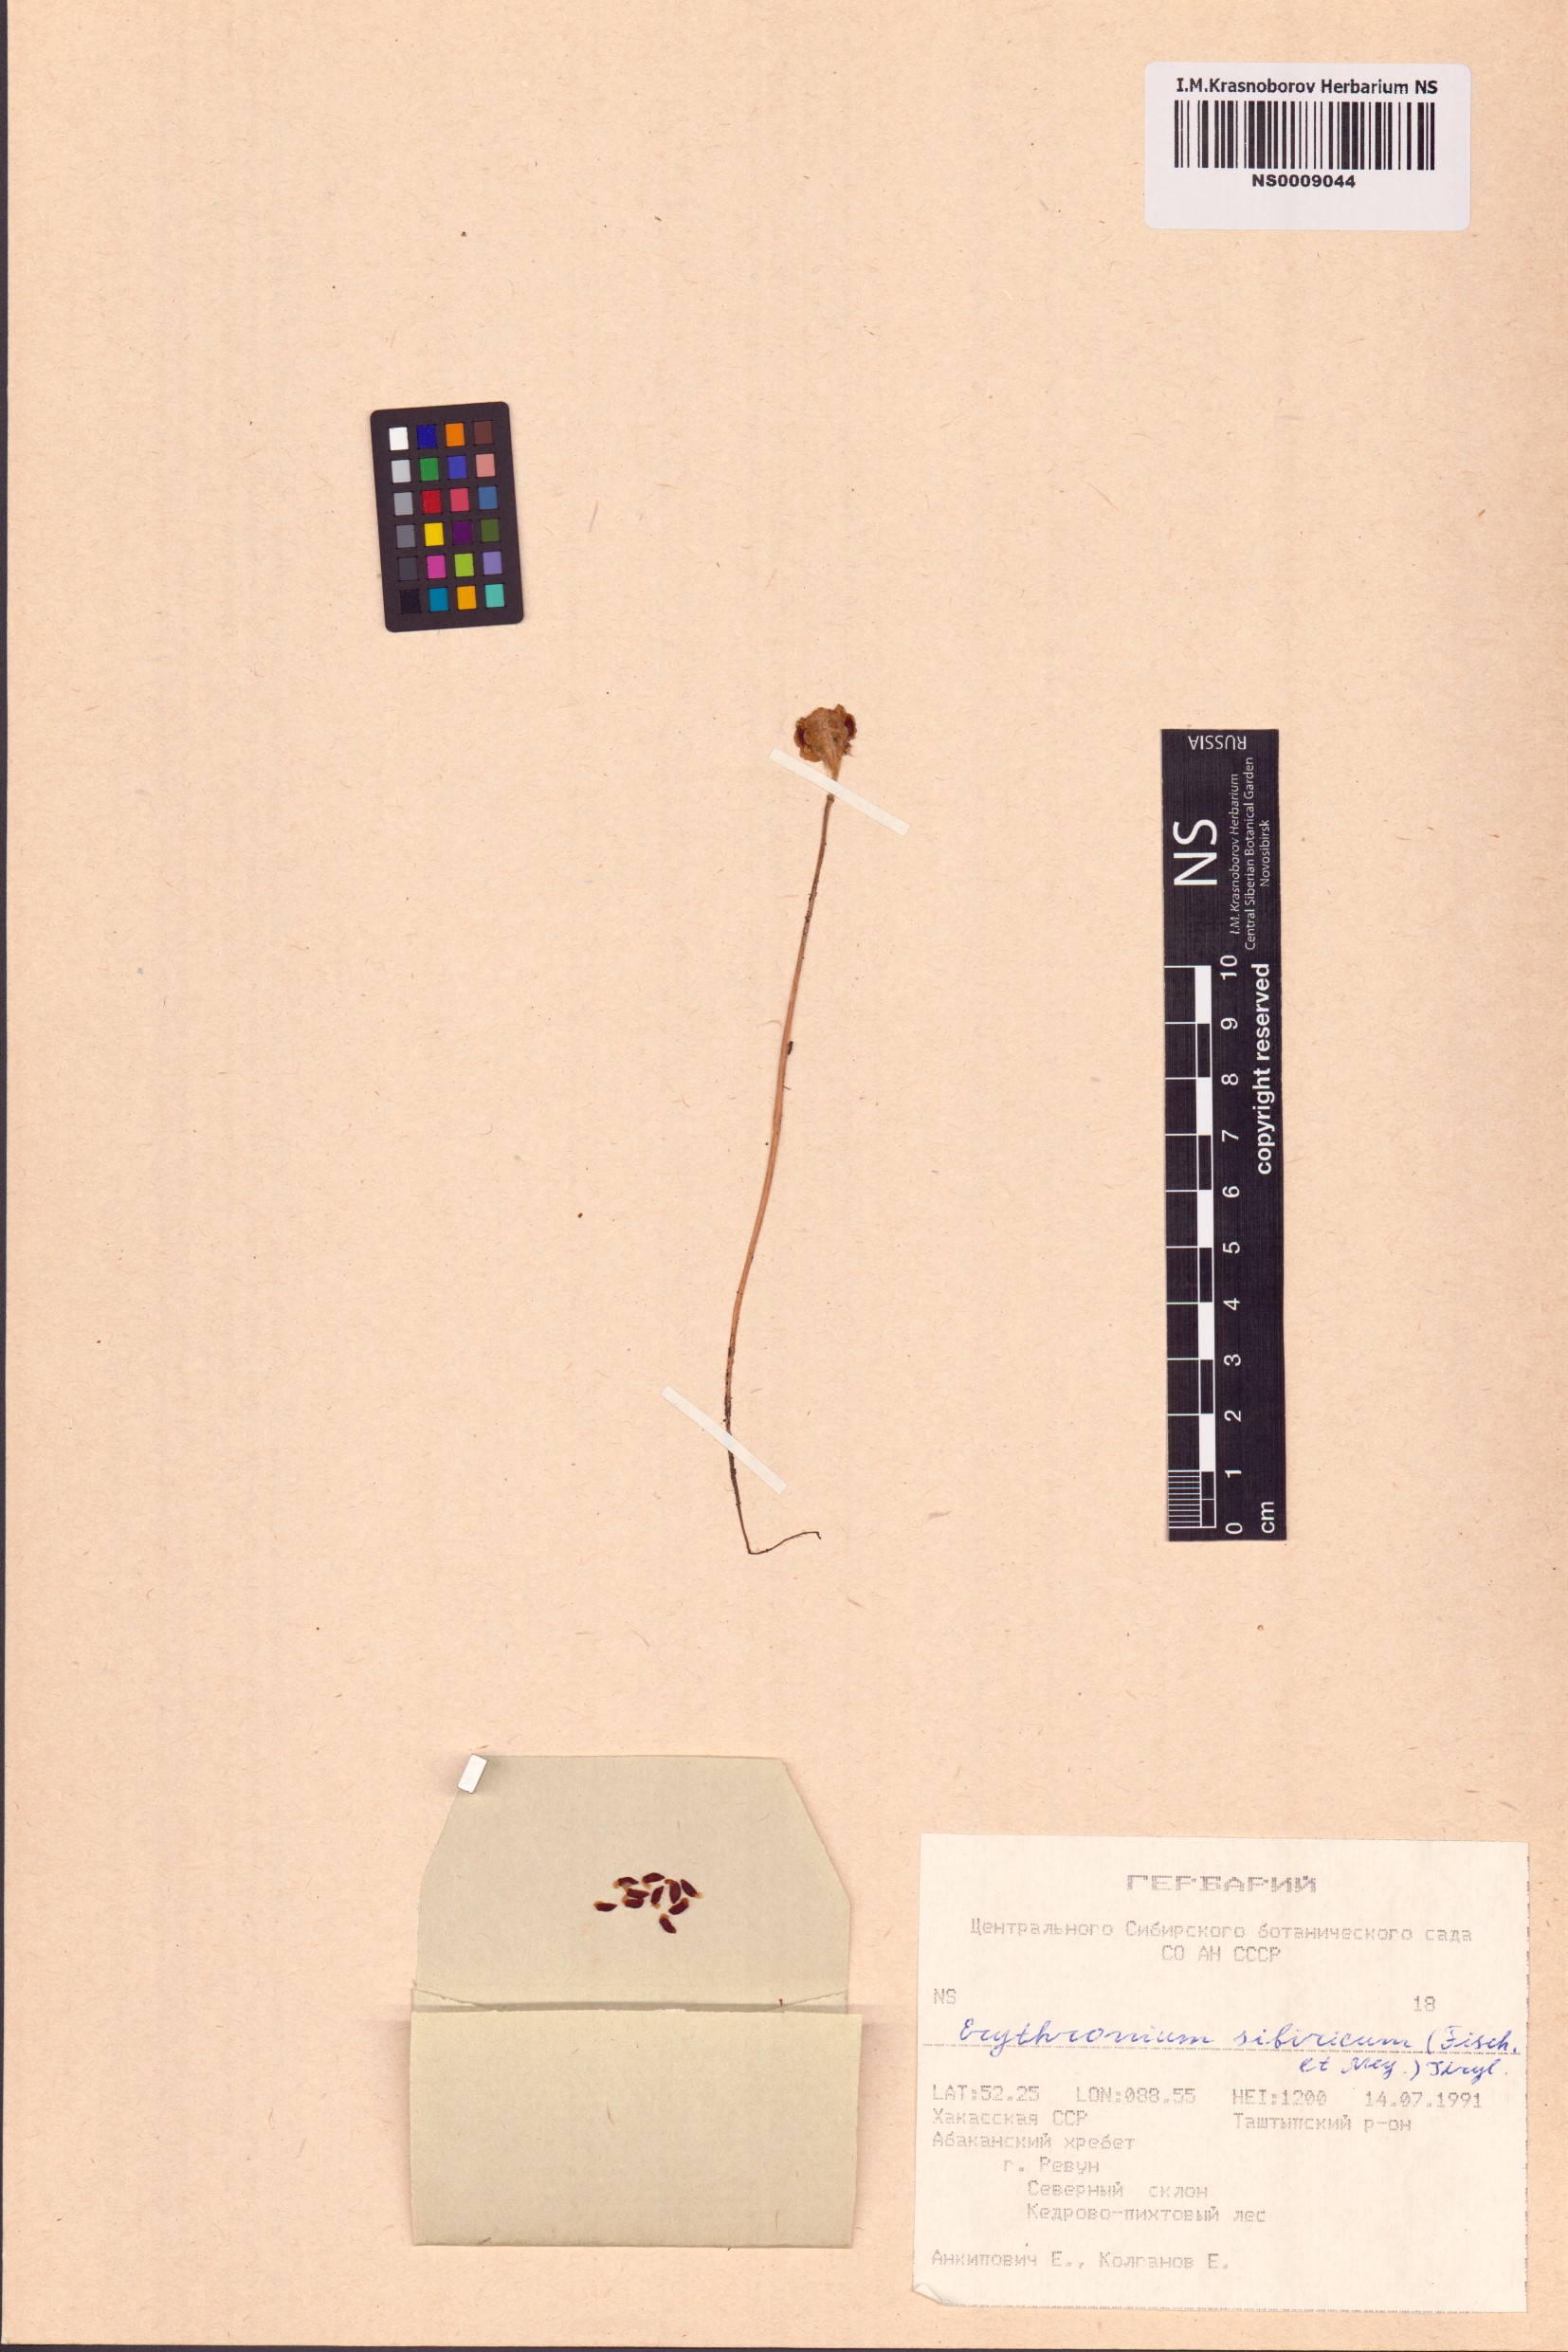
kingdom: Plantae
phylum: Tracheophyta
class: Liliopsida
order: Liliales
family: Liliaceae
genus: Erythronium
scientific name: Erythronium sibiricum
